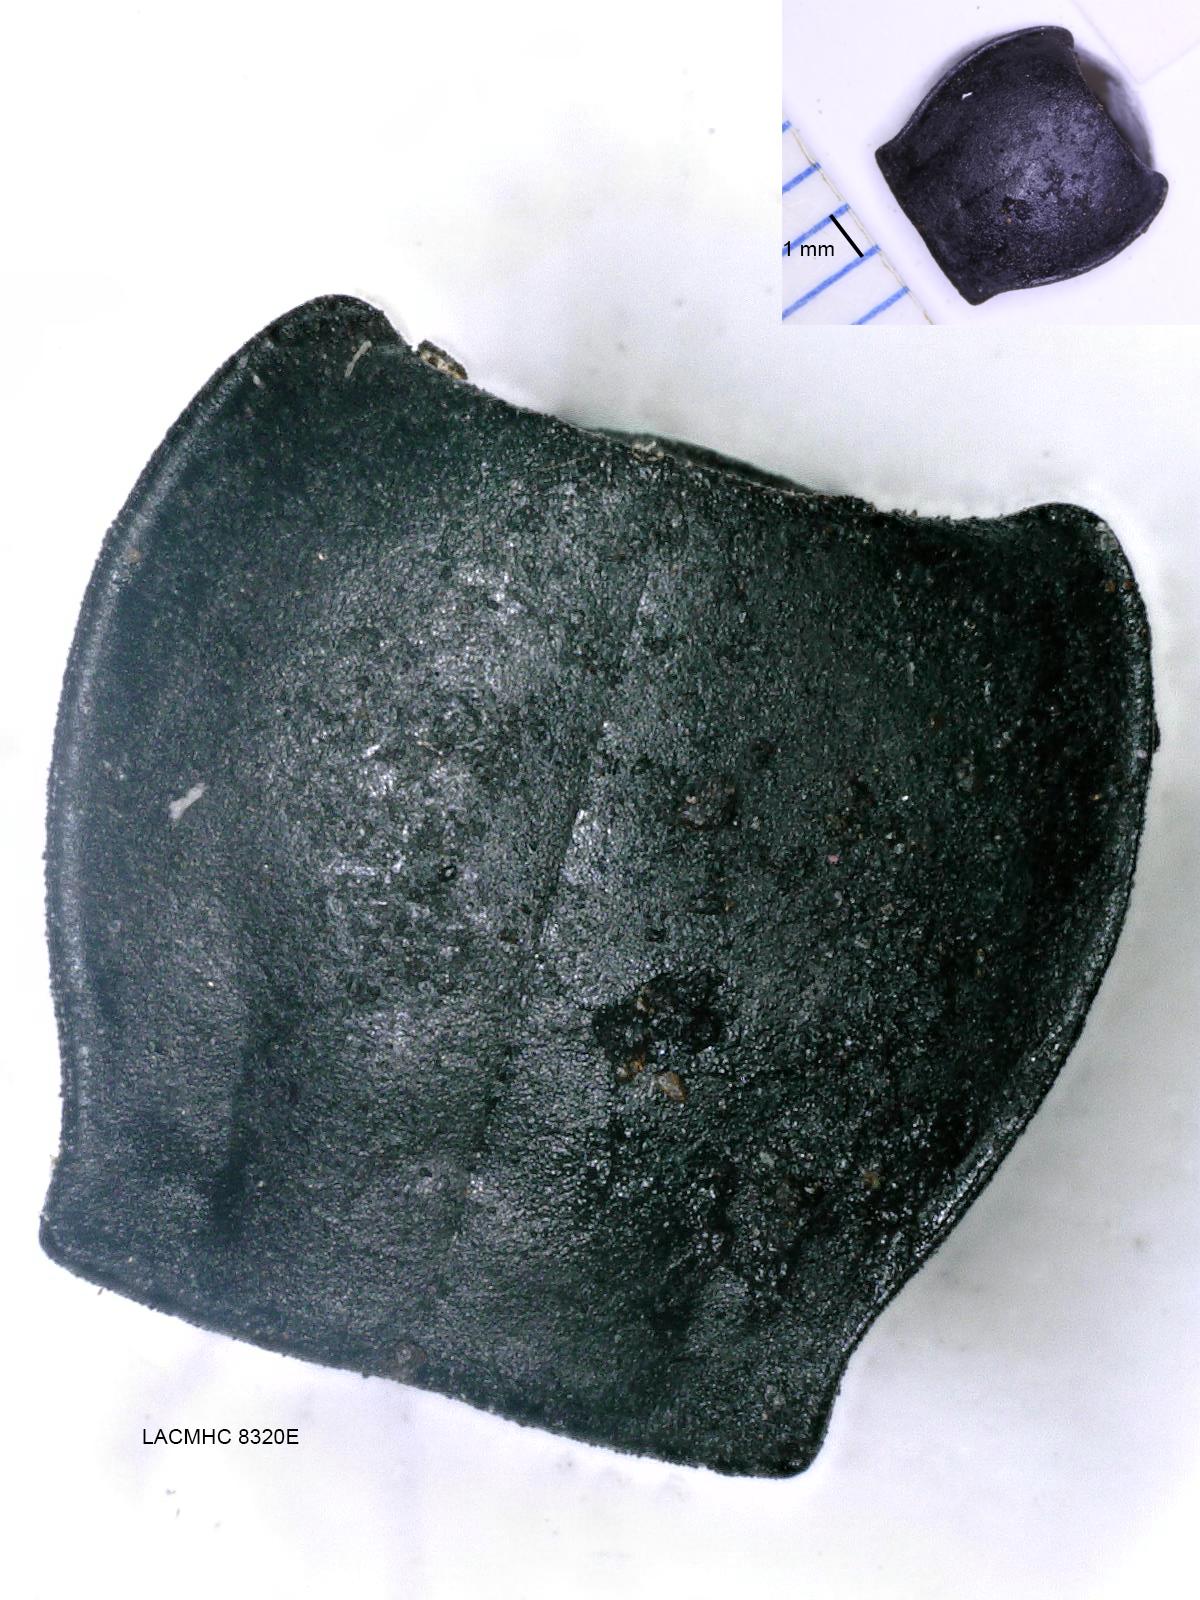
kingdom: Animalia
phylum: Arthropoda
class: Insecta
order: Coleoptera
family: Carabidae
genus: Pterostichus
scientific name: Pterostichus illustris
